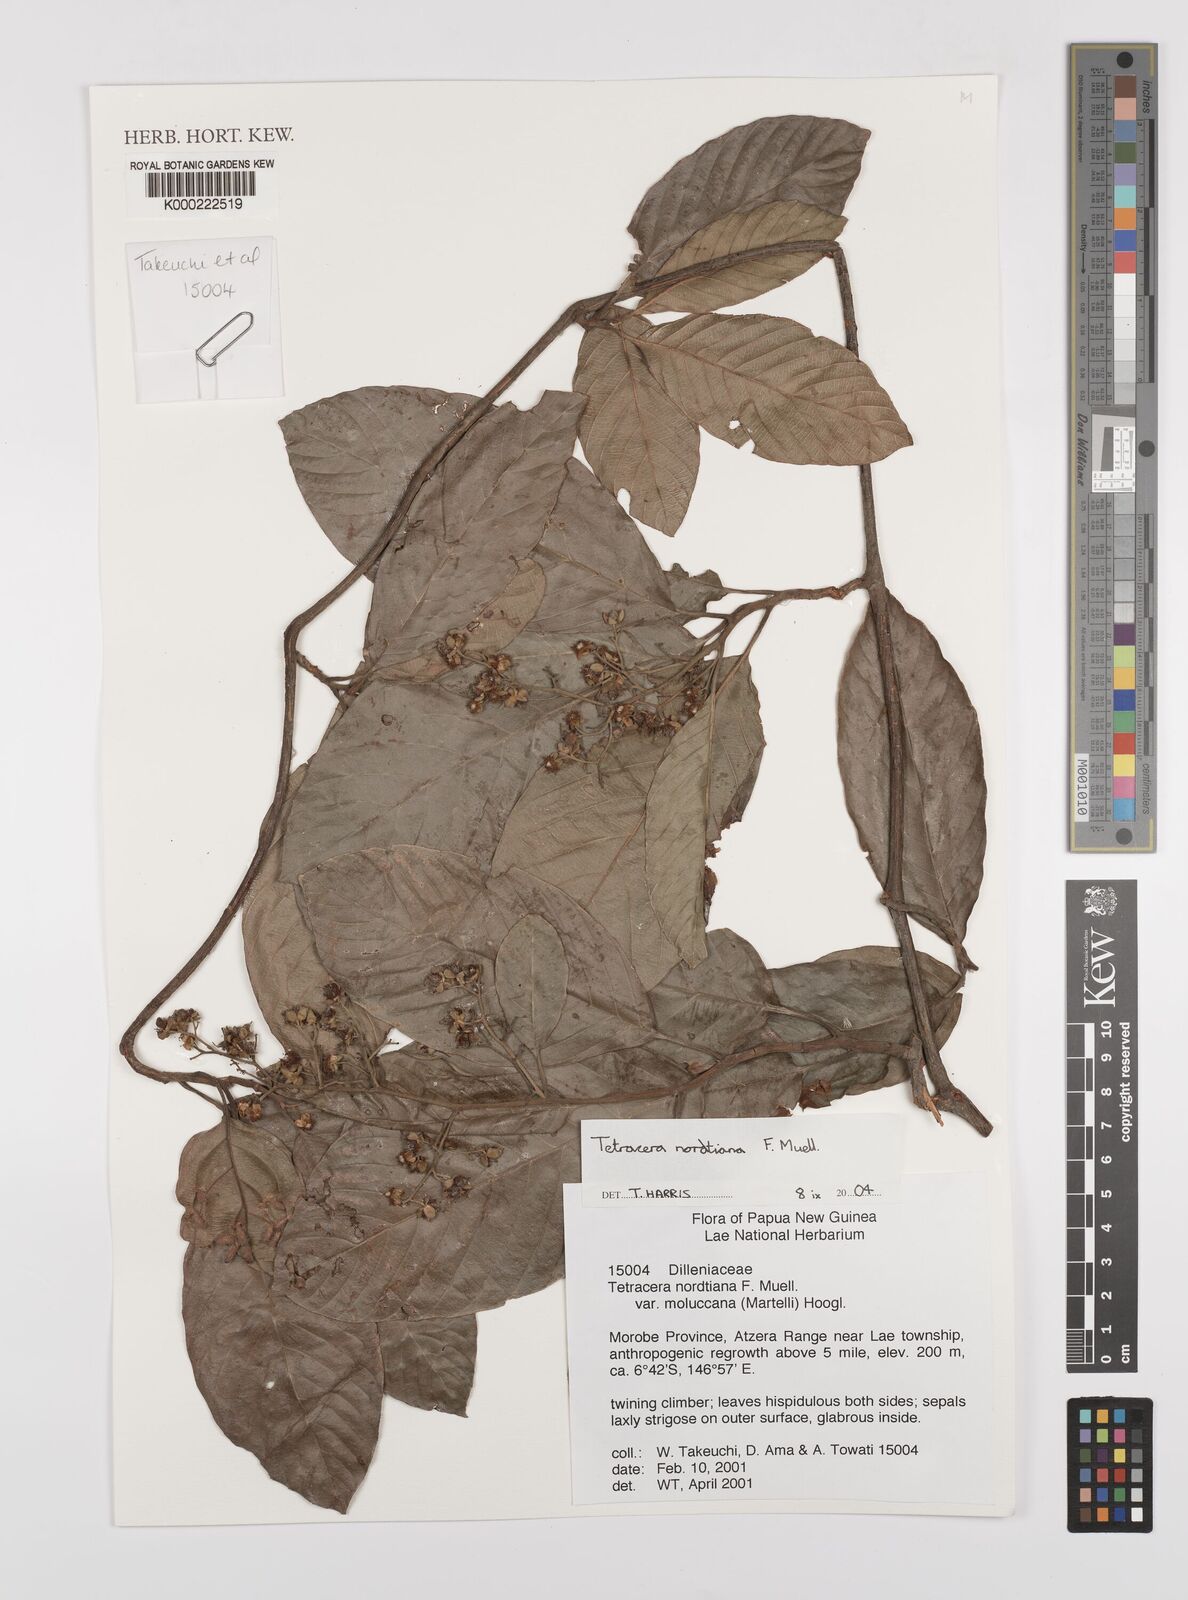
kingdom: Plantae
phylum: Tracheophyta
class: Magnoliopsida
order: Dilleniales
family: Dilleniaceae
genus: Tetracera
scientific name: Tetracera nordtiana
